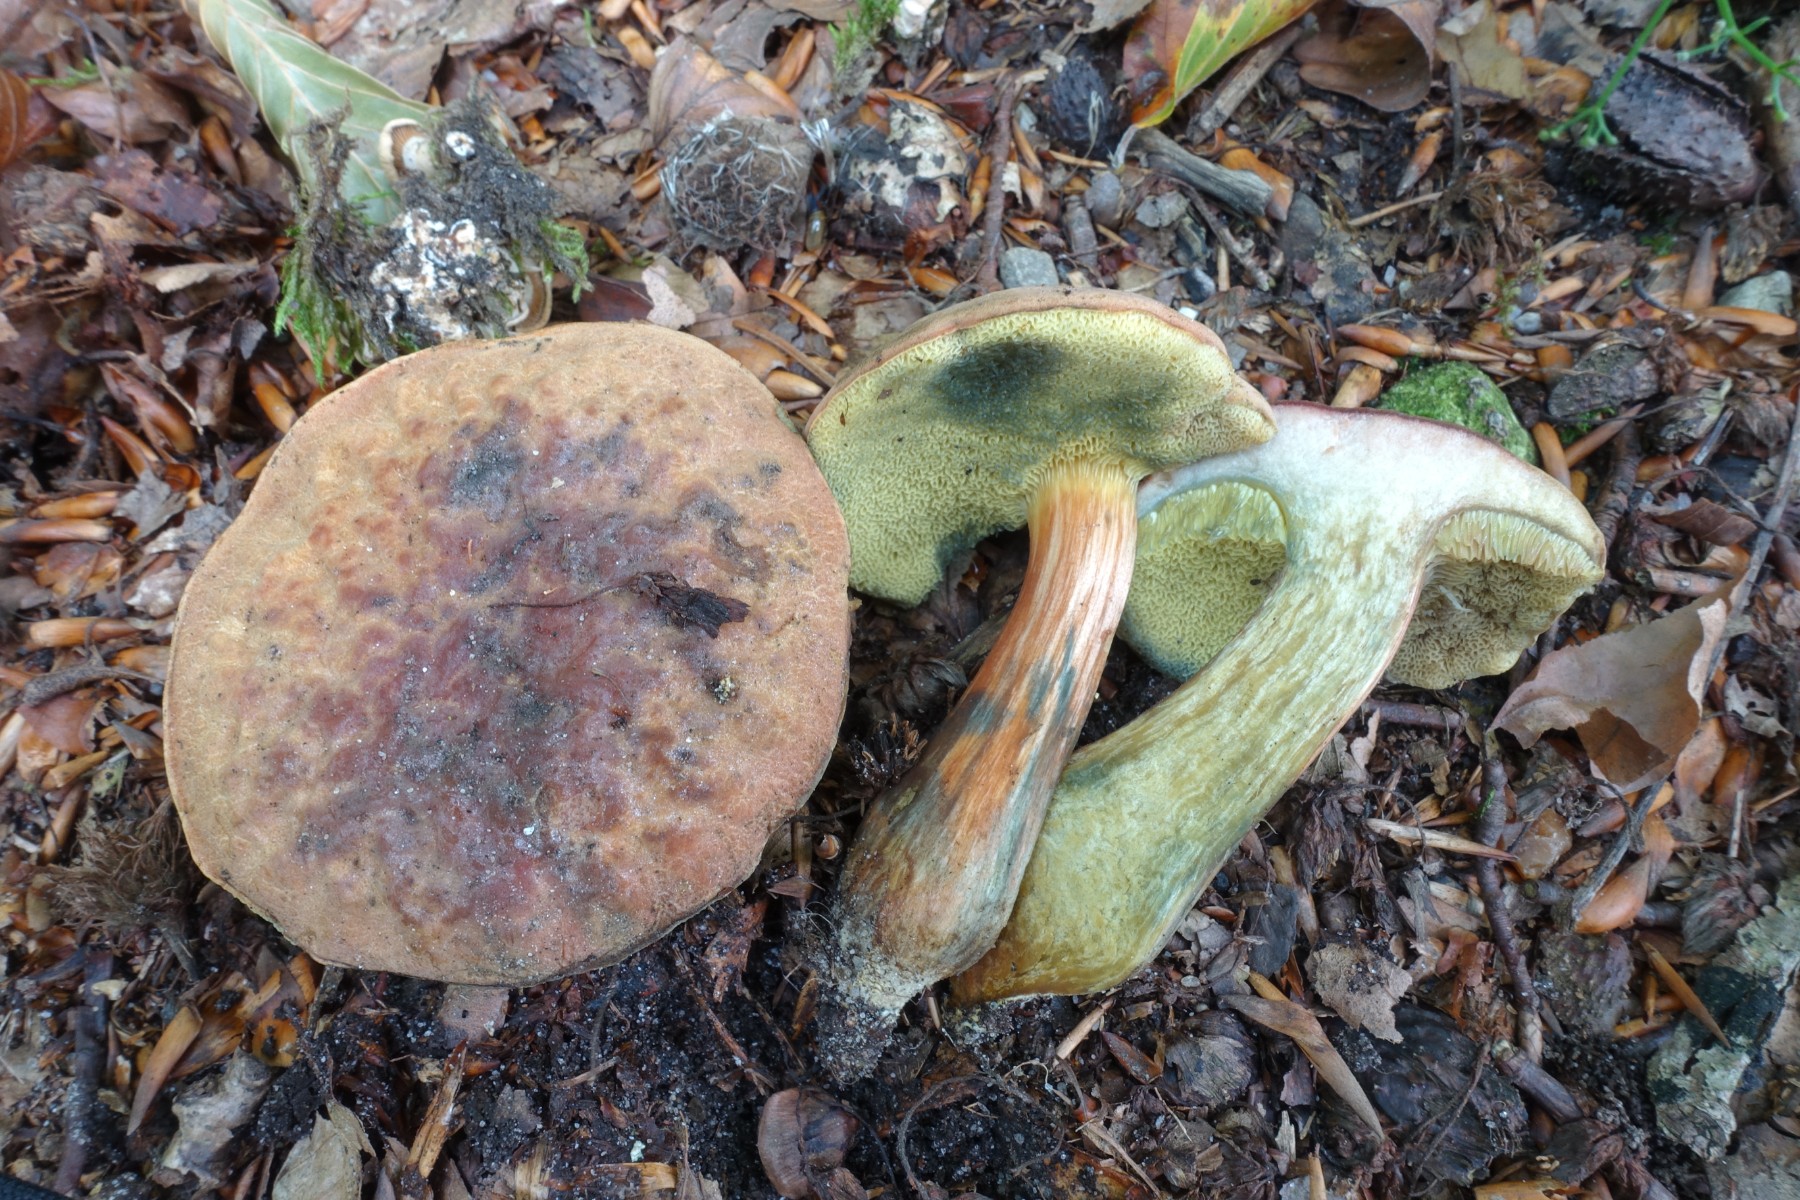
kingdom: Fungi
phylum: Basidiomycota
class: Agaricomycetes
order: Boletales
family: Boletaceae
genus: Hortiboletus
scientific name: Hortiboletus bubalinus
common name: aurora-rørhat
